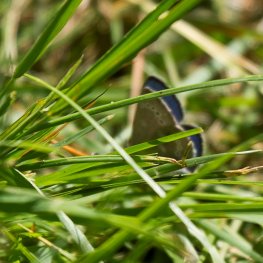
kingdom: Animalia
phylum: Arthropoda
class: Insecta
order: Lepidoptera
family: Lycaenidae
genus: Glaucopsyche
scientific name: Glaucopsyche lygdamus
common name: Silvery Blue
